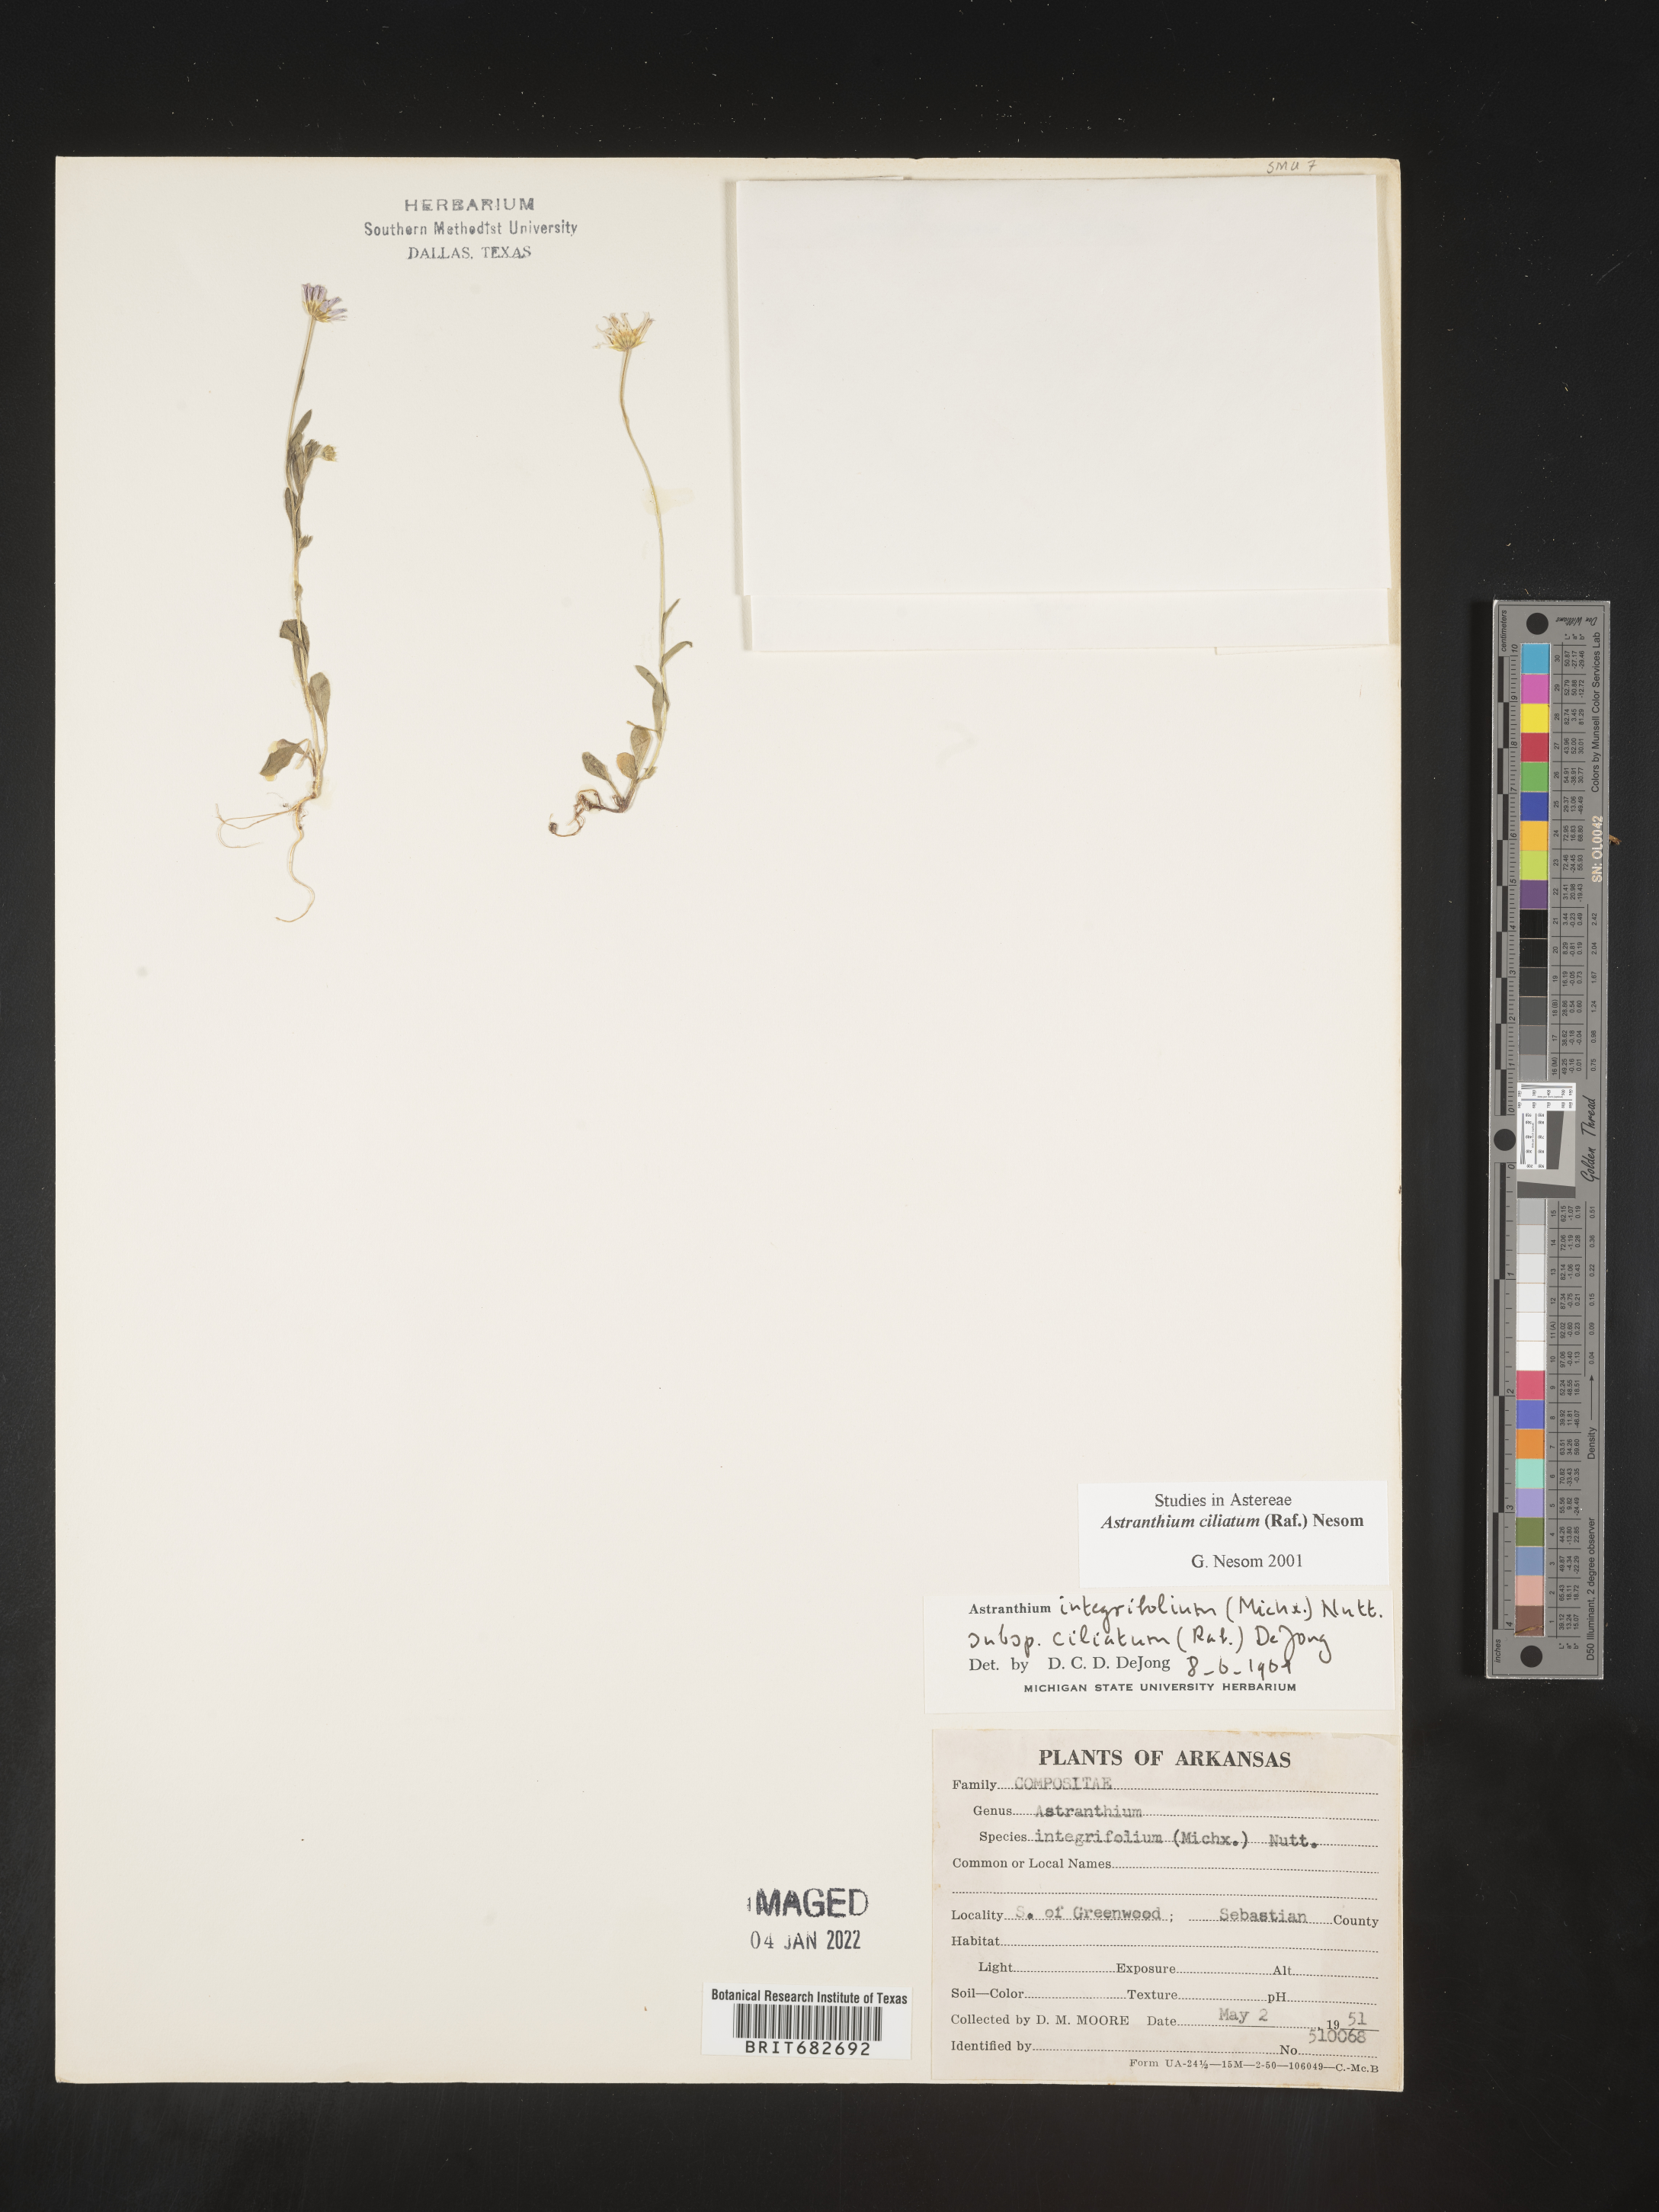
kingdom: Plantae
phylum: Tracheophyta
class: Magnoliopsida
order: Asterales
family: Asteraceae
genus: Astranthium
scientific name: Astranthium ciliatum
